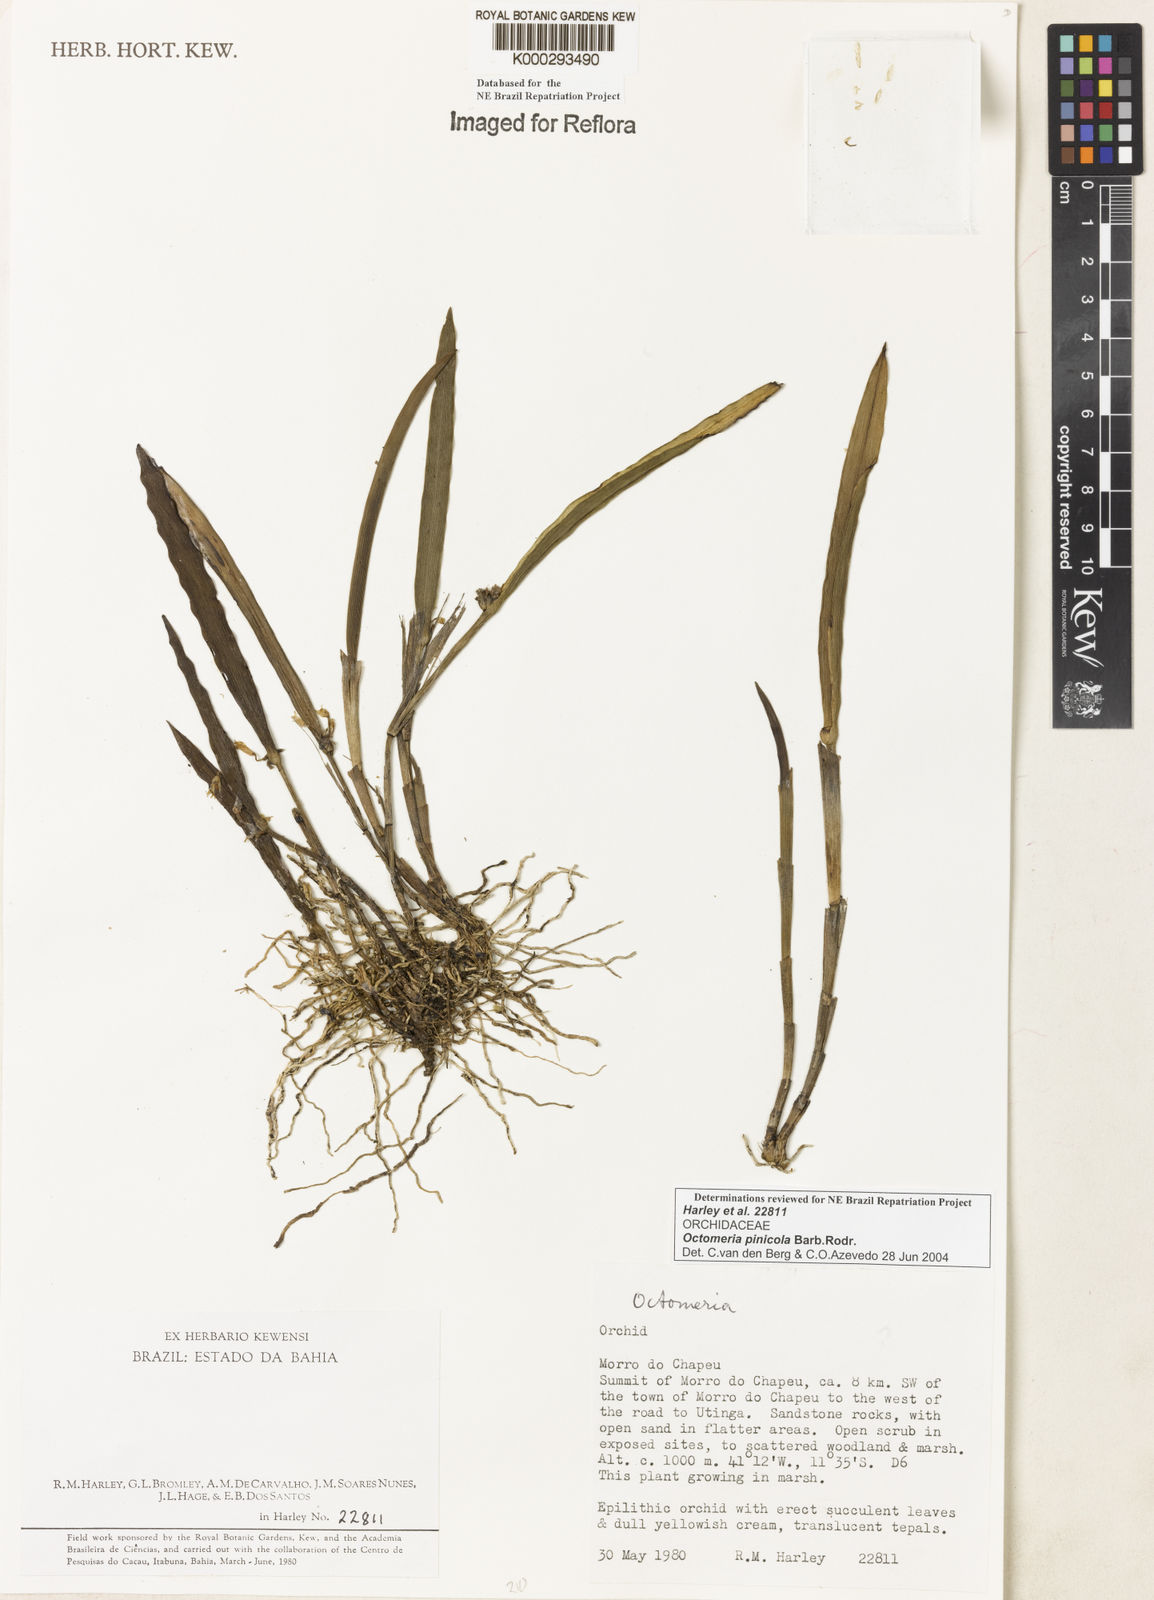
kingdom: Plantae
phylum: Tracheophyta
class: Liliopsida
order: Asparagales
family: Orchidaceae
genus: Octomeria
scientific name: Octomeria pinicola
